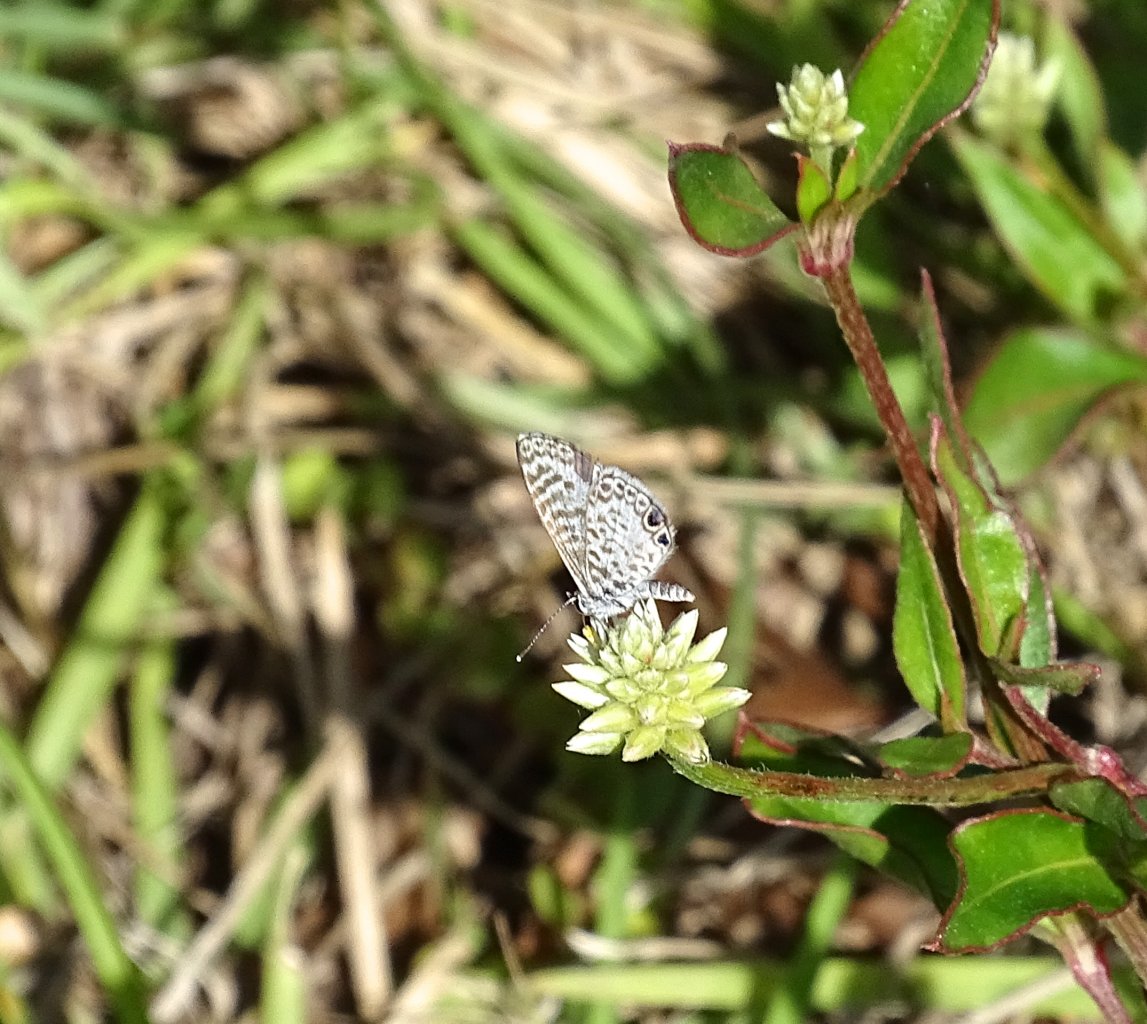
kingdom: Animalia
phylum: Arthropoda
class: Insecta
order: Lepidoptera
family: Lycaenidae
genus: Leptotes
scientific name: Leptotes cassius
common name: Cassius Blue
